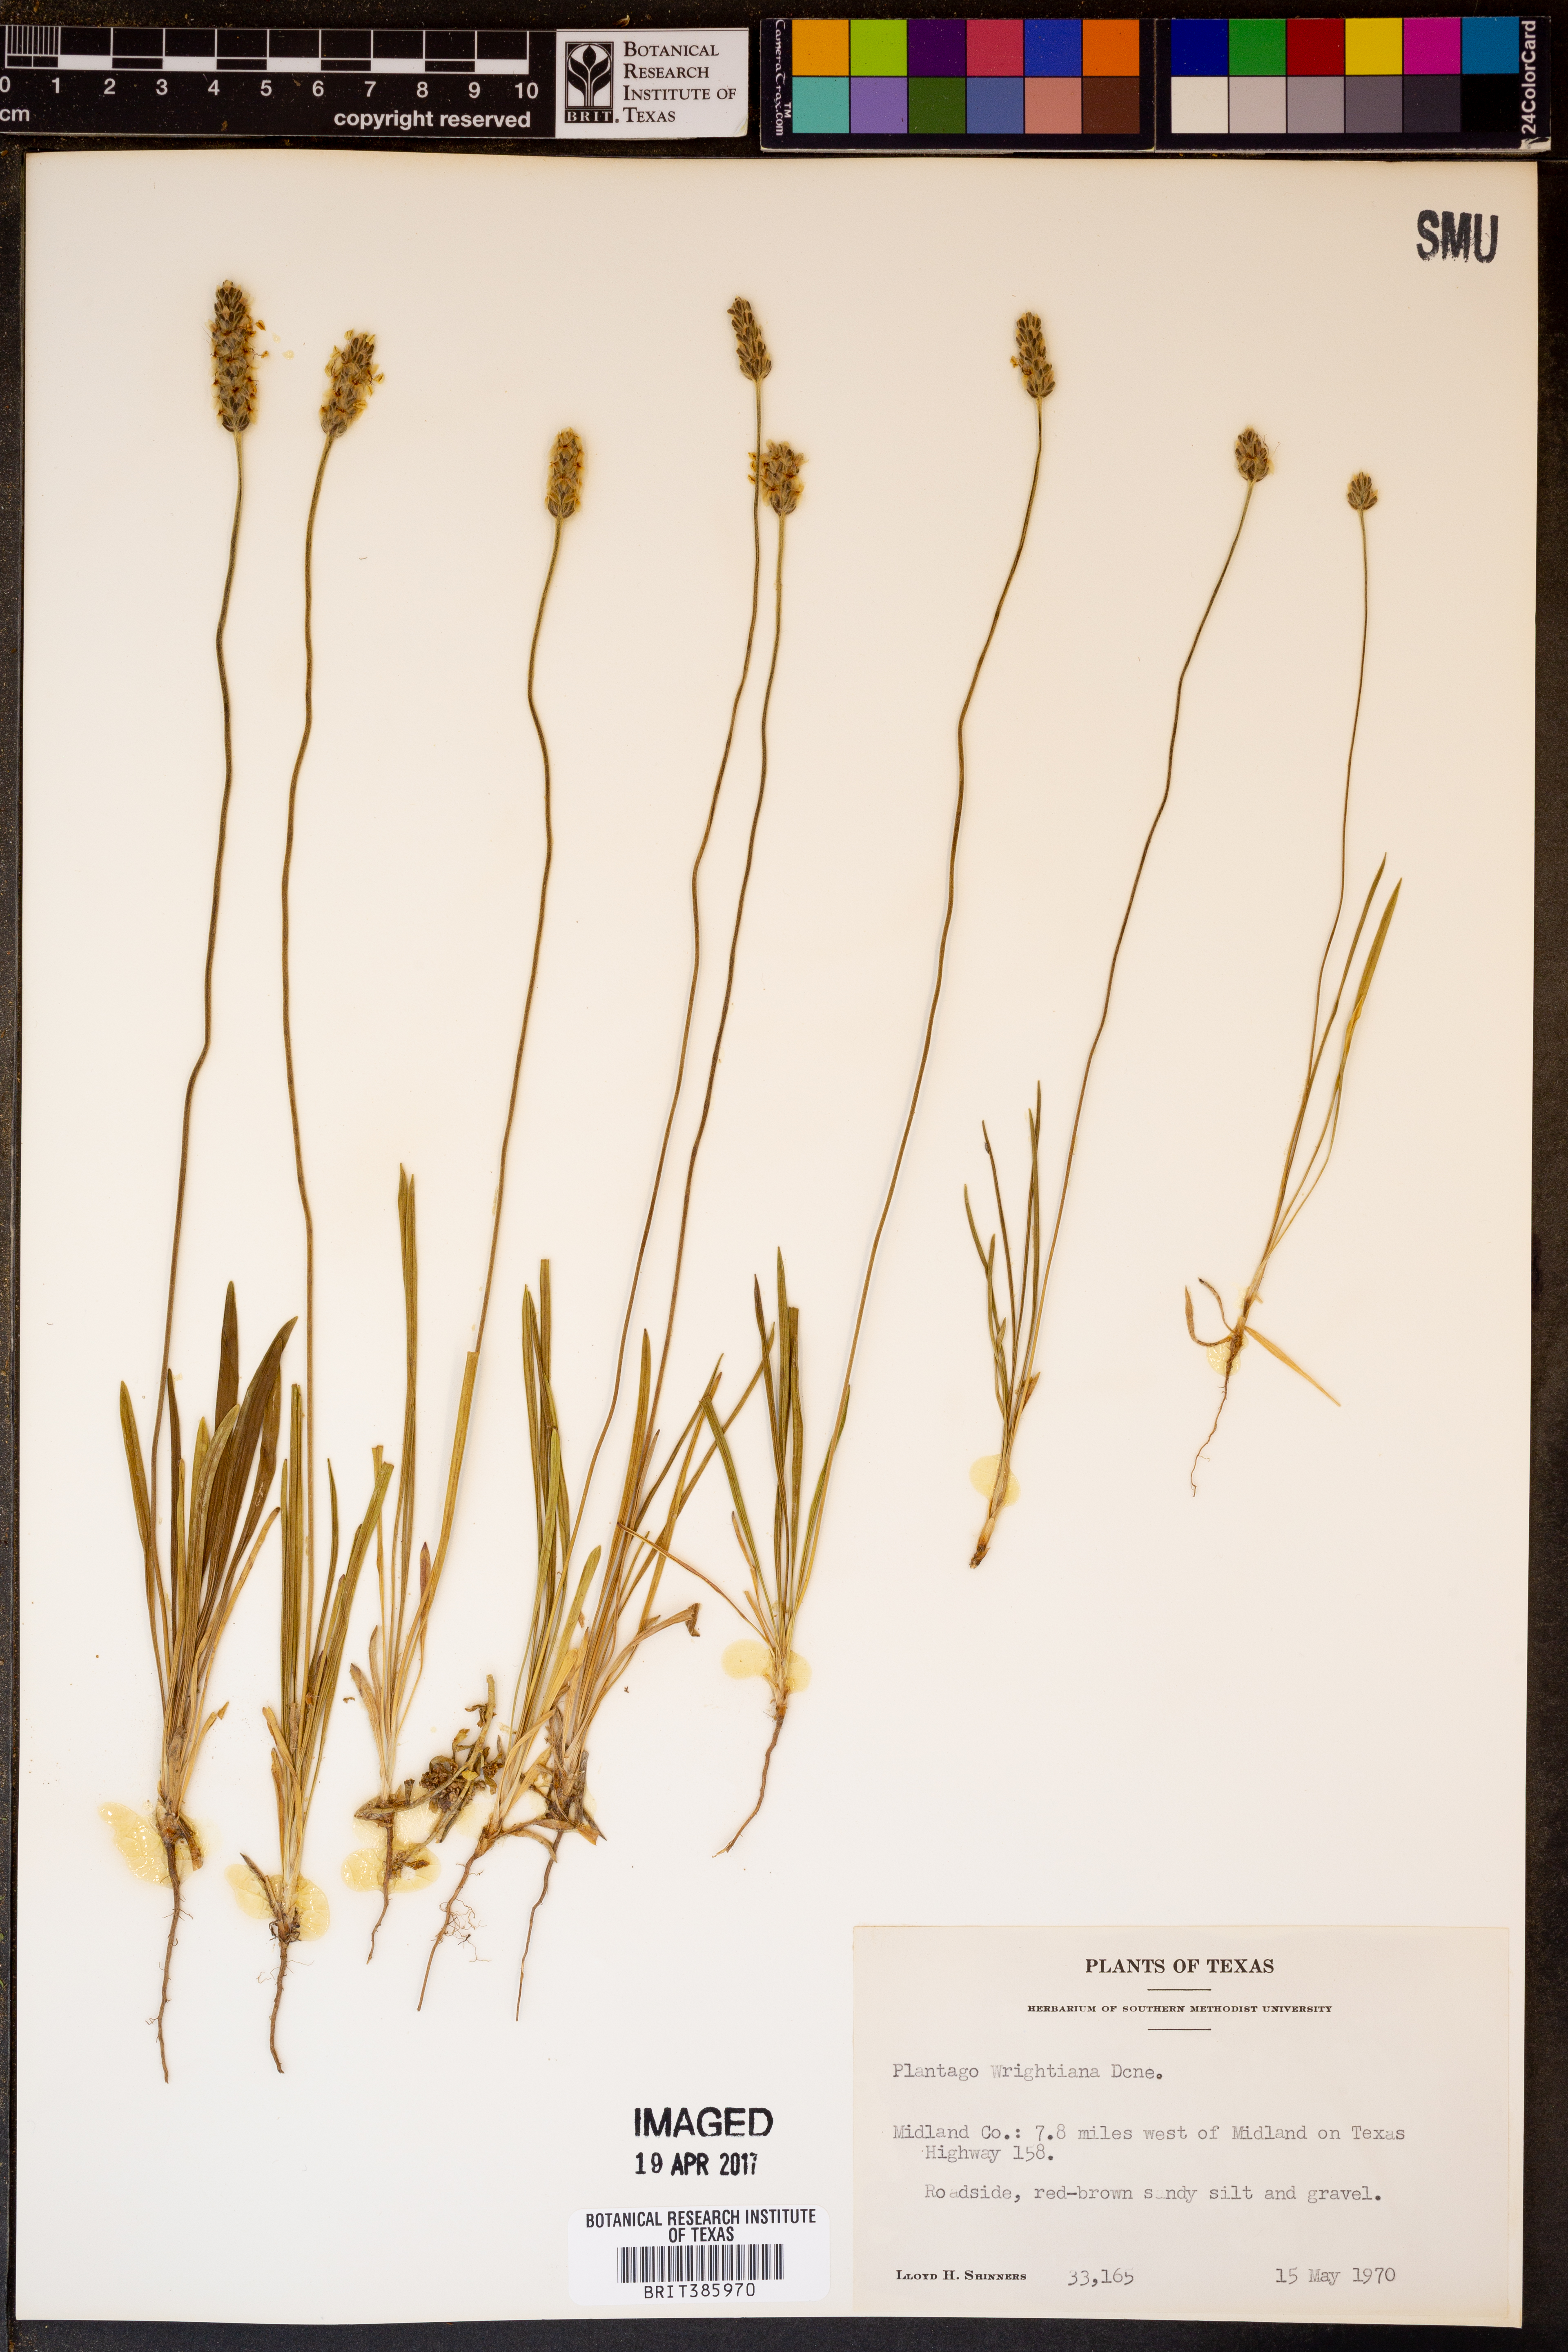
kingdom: Plantae
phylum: Tracheophyta
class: Magnoliopsida
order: Lamiales
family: Plantaginaceae
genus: Plantago
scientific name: Plantago wrightiana
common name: Wright's plantain
